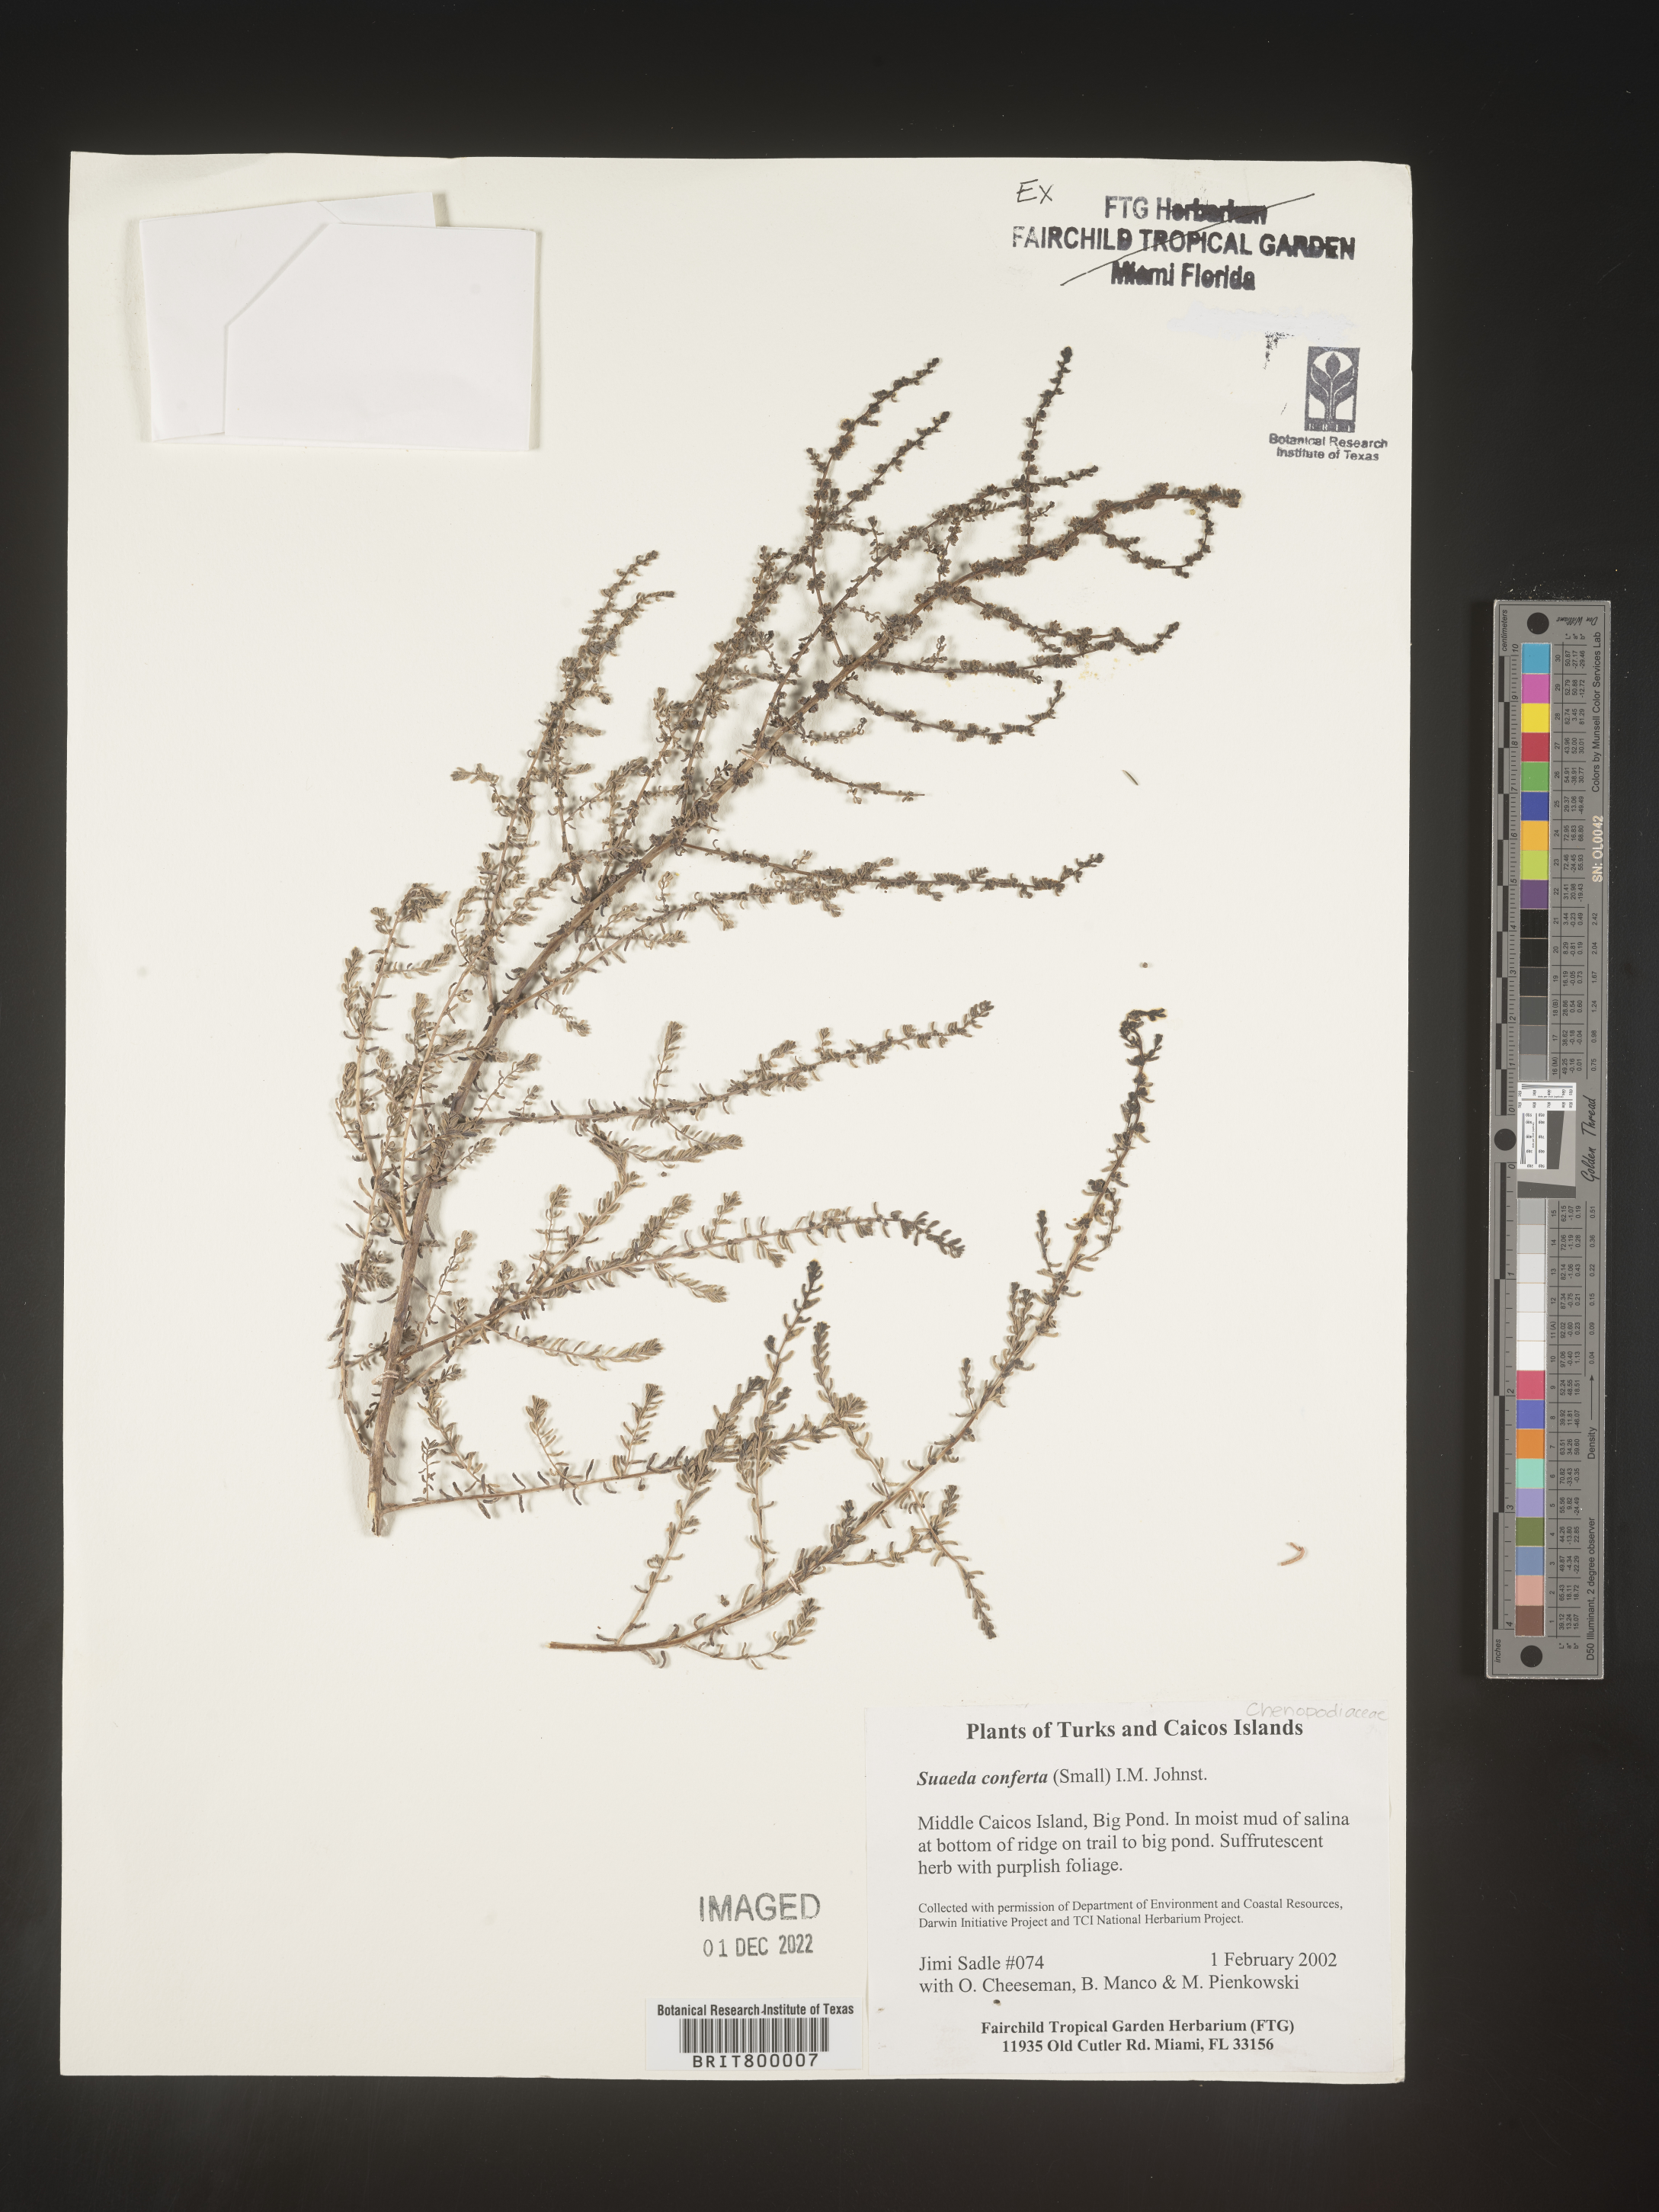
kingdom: Plantae
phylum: Tracheophyta
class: Magnoliopsida
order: Caryophyllales
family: Amaranthaceae
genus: Suaeda
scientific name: Suaeda
